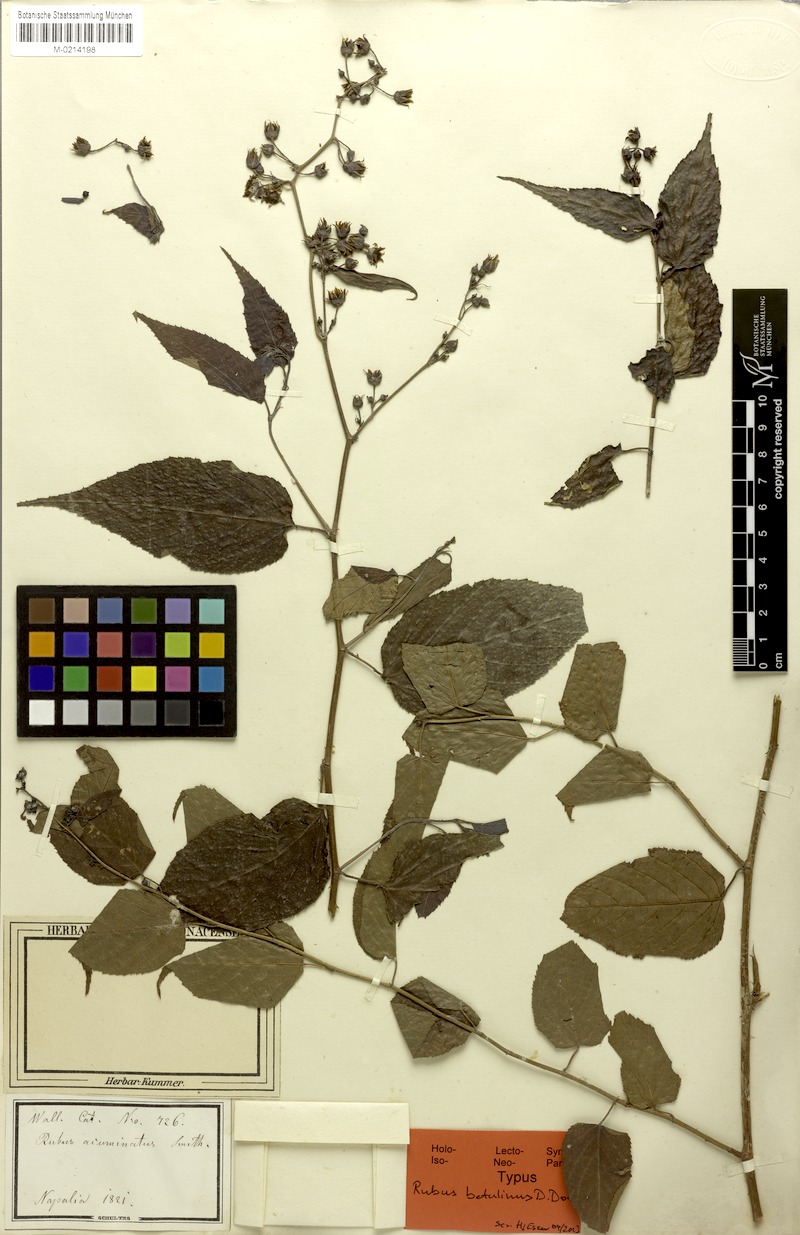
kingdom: Plantae
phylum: Tracheophyta
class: Magnoliopsida
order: Rosales
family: Rosaceae
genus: Rubus
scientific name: Rubus acuminatus
